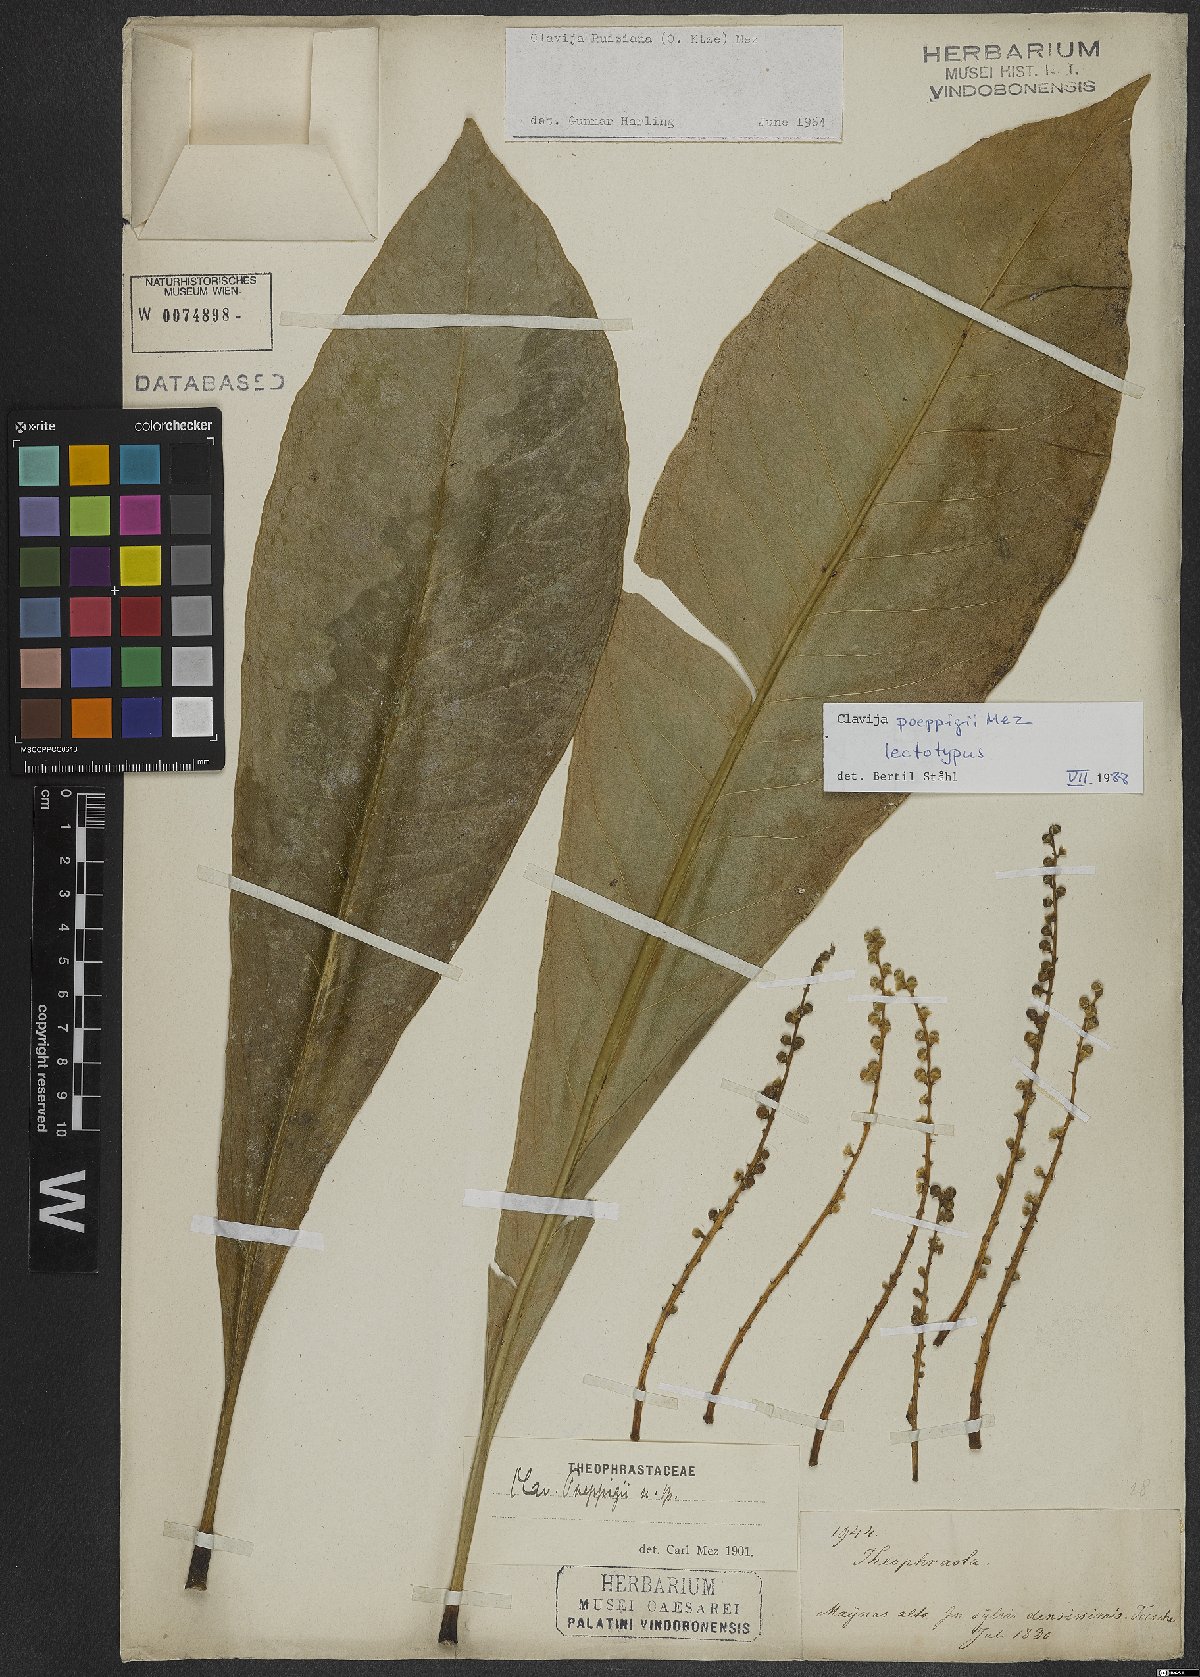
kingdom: Plantae
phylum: Tracheophyta
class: Magnoliopsida
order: Ericales
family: Primulaceae
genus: Clavija
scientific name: Clavija poeppigii
